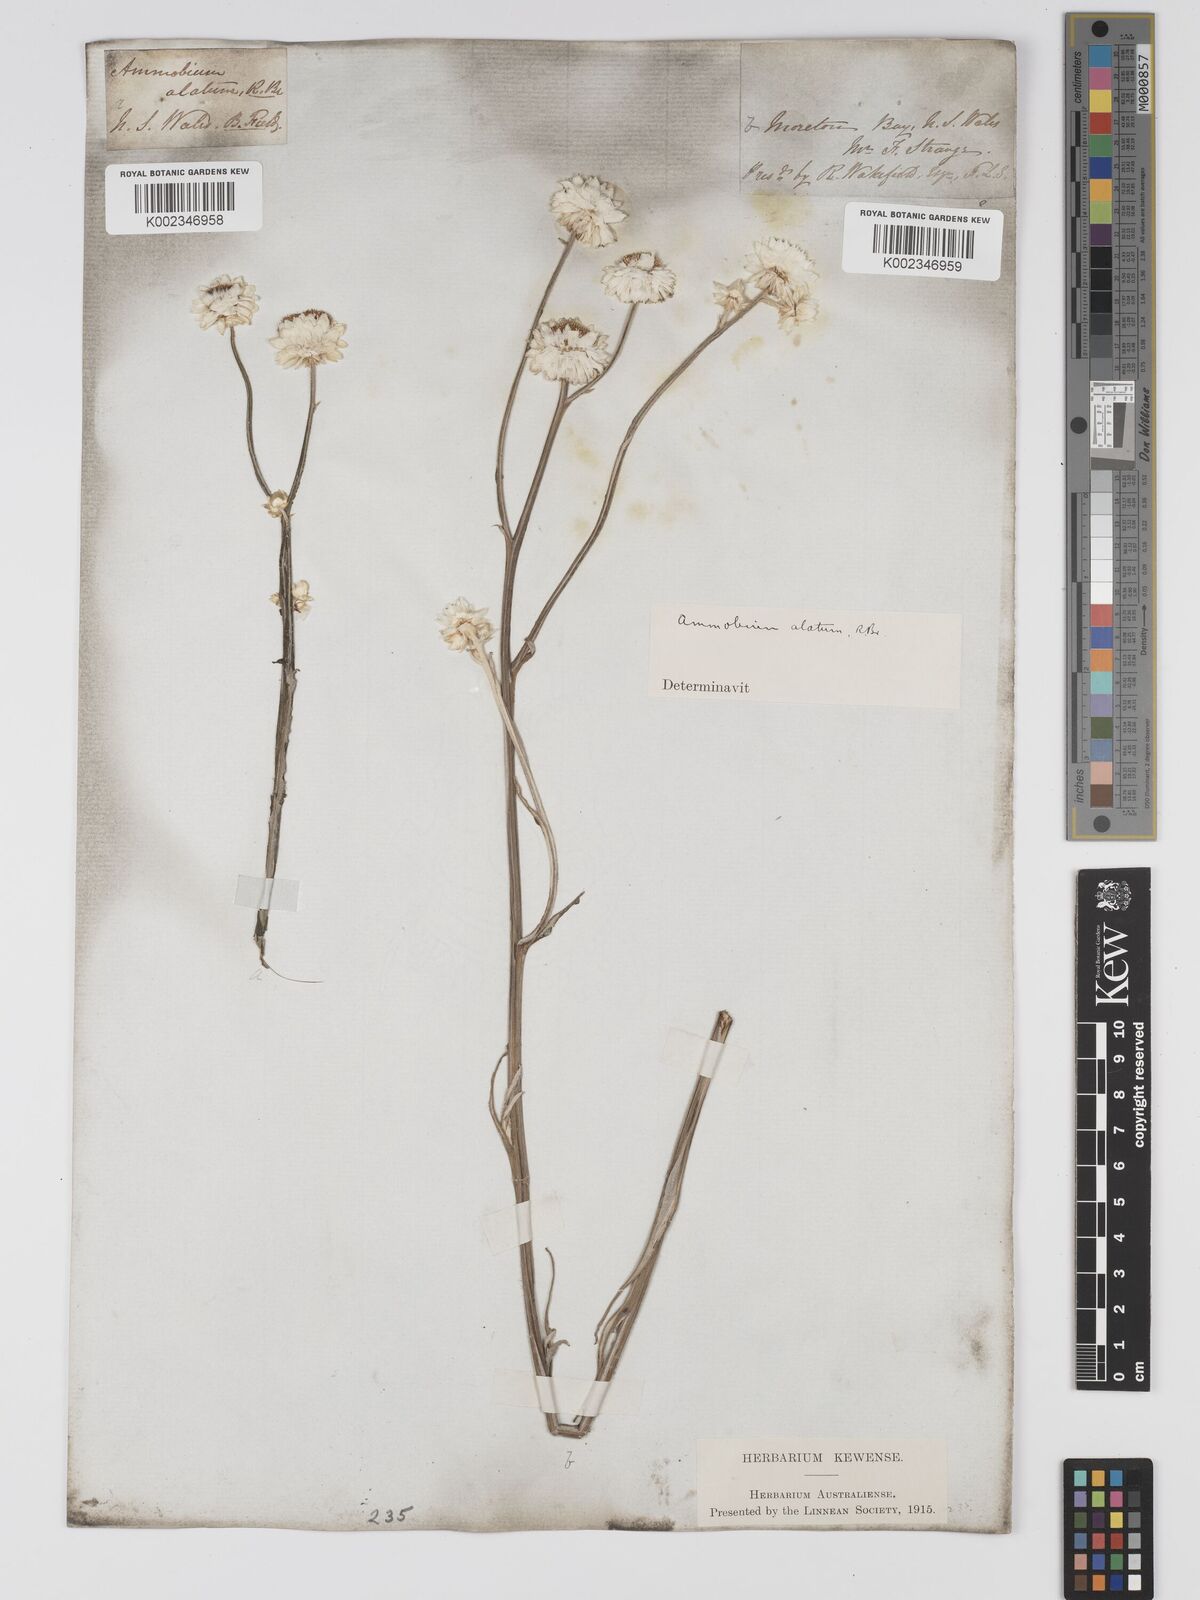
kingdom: Plantae
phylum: Tracheophyta
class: Magnoliopsida
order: Asterales
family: Asteraceae
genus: Ammobium
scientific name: Ammobium alatum
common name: Winged everlasting
